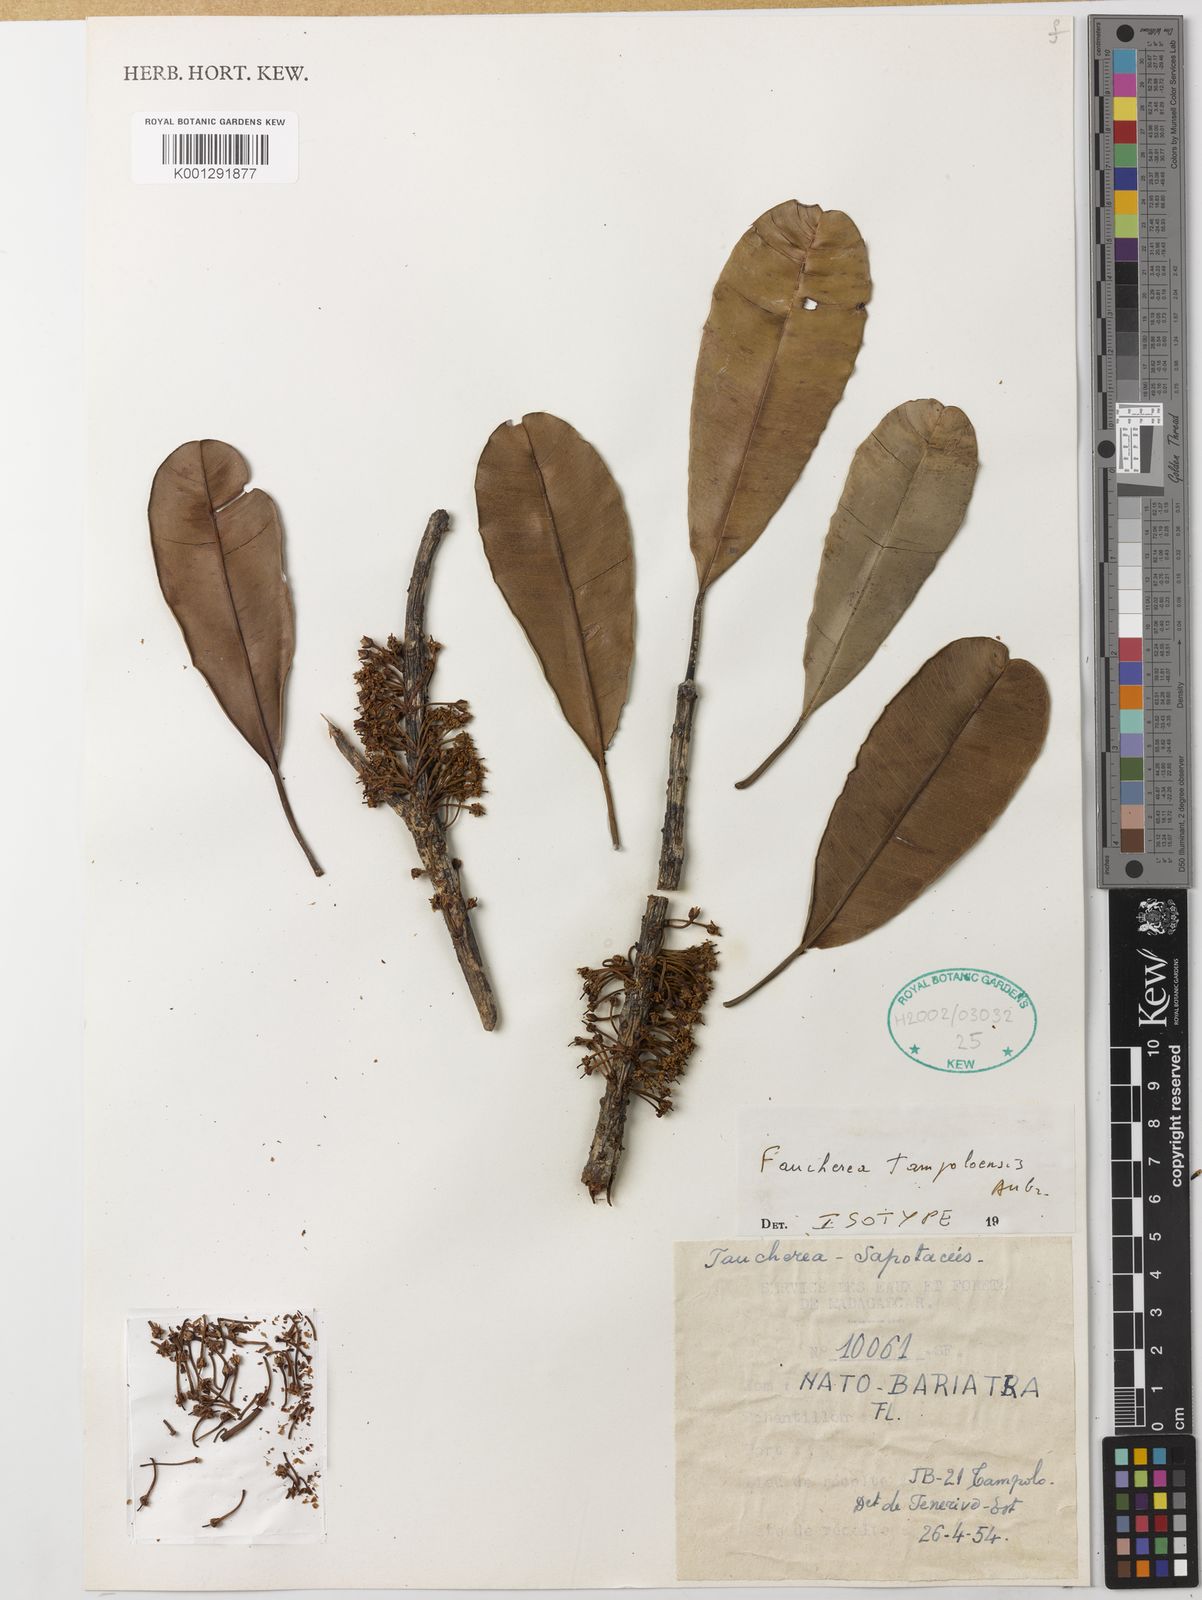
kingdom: Plantae
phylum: Tracheophyta
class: Magnoliopsida
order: Ericales
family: Sapotaceae
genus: Faucherea
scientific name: Faucherea tampoloensis
